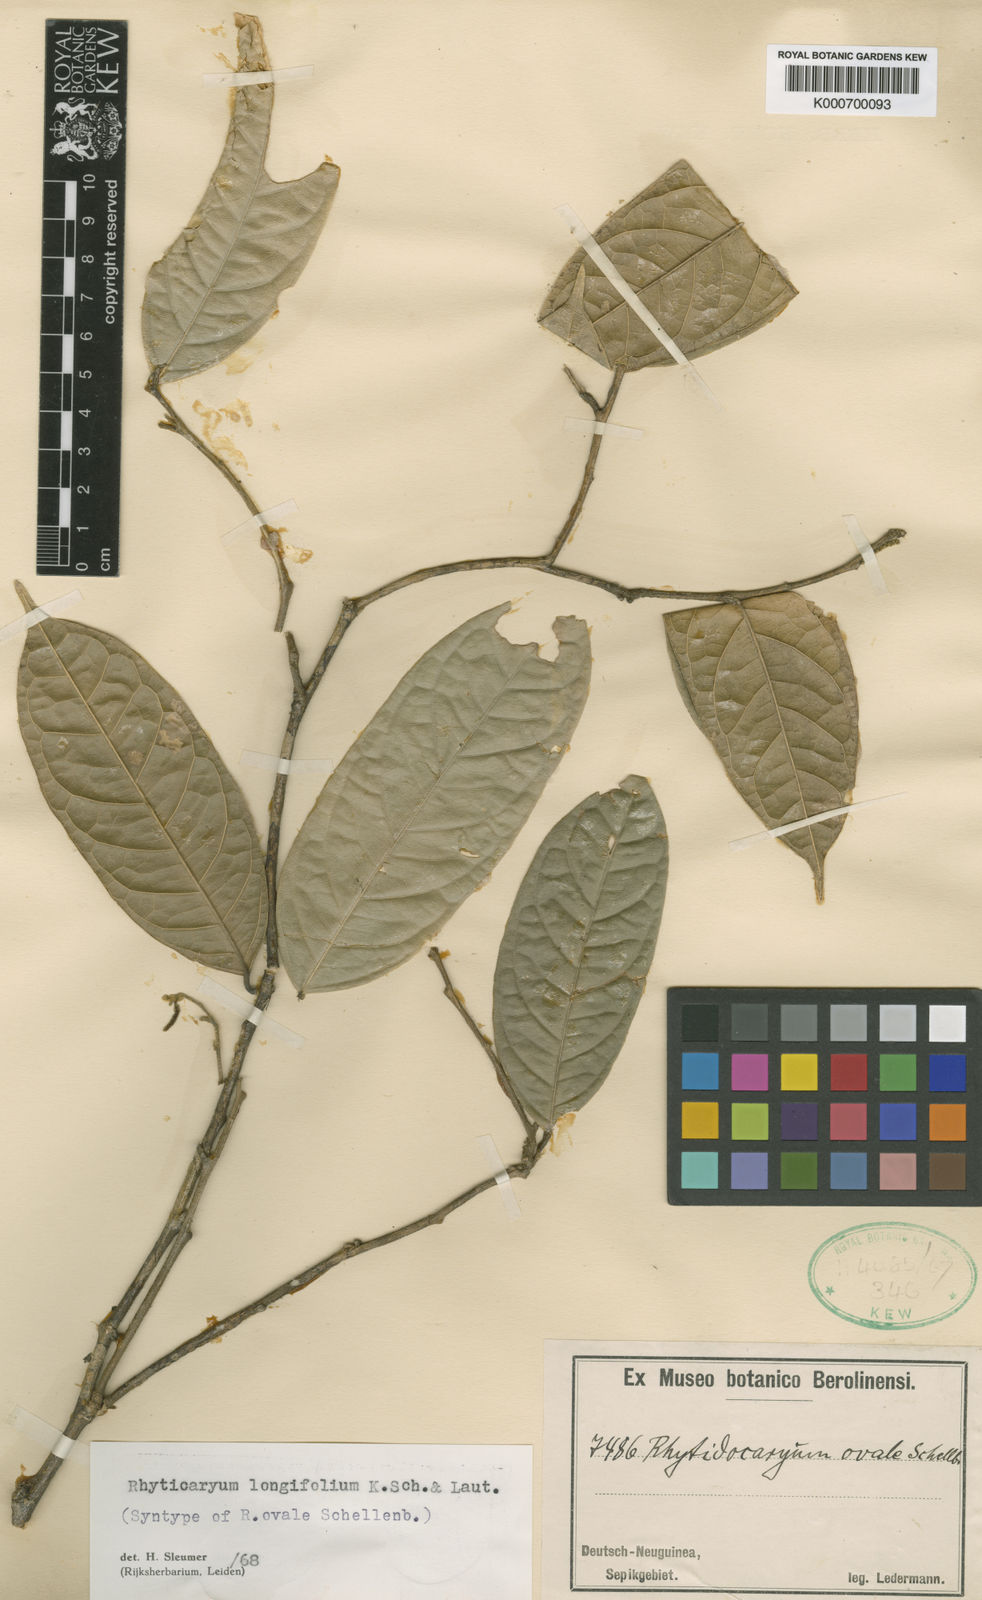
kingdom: Plantae
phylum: Tracheophyta
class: Magnoliopsida
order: Icacinales
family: Icacinaceae
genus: Ryticaryum
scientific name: Ryticaryum
